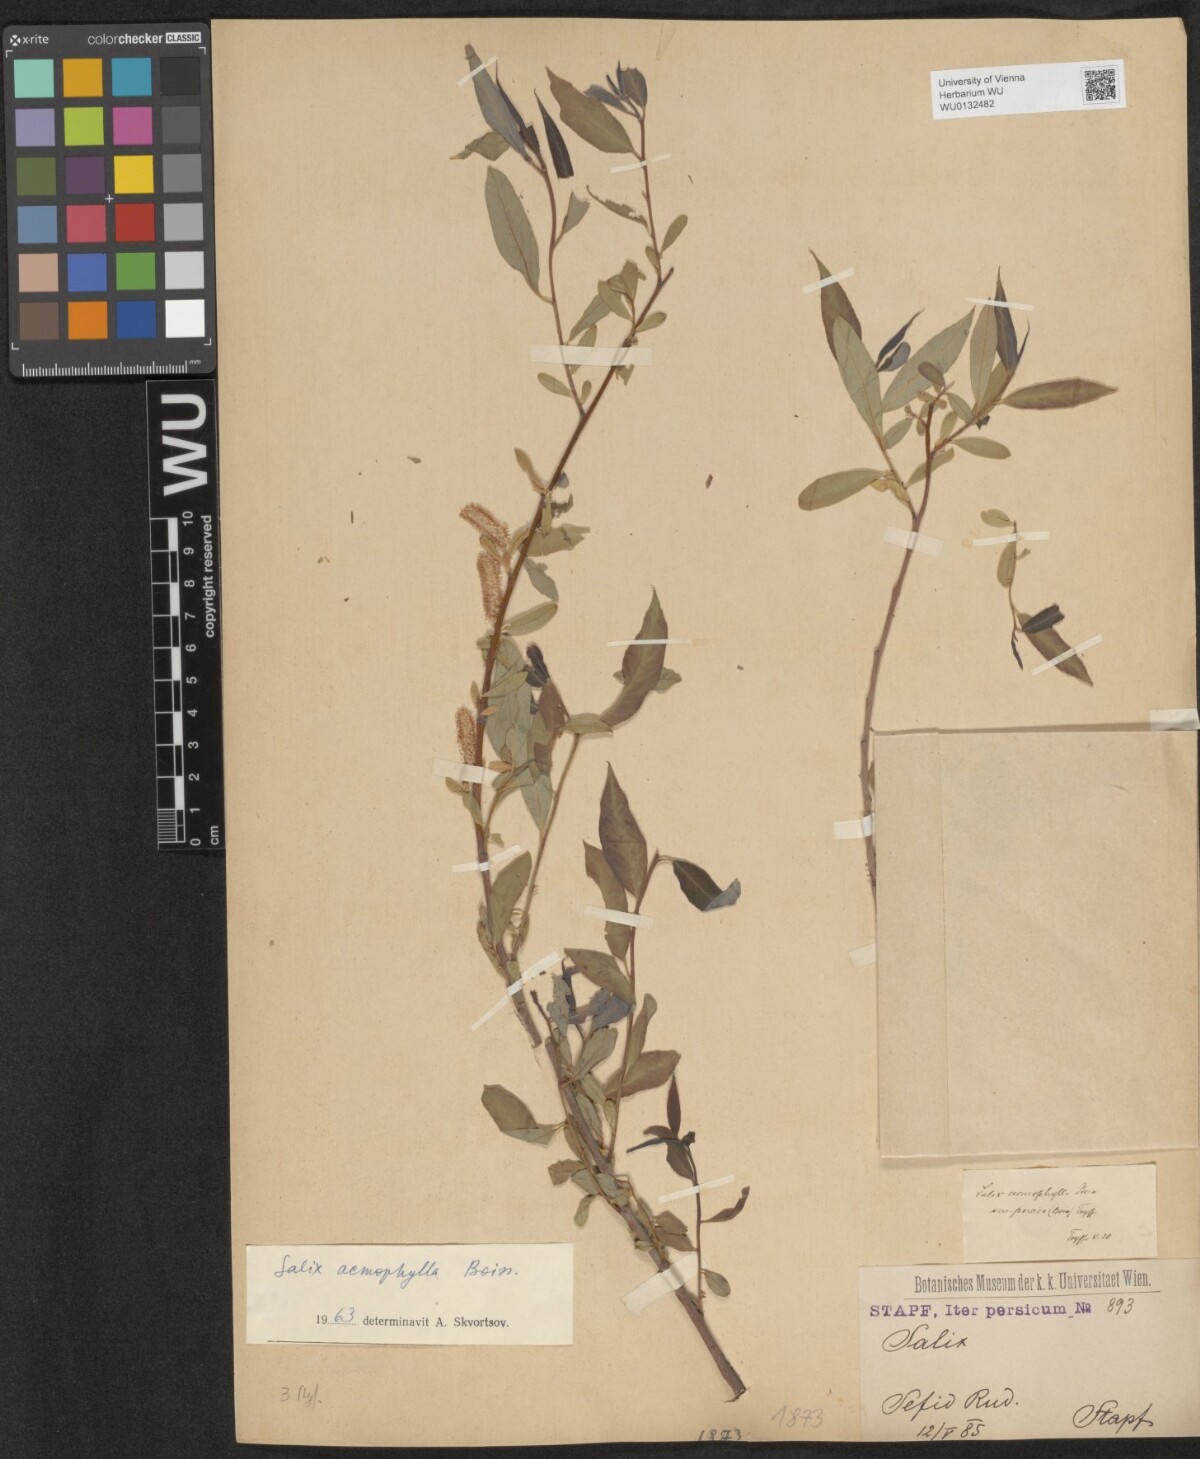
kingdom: Plantae
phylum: Tracheophyta
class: Magnoliopsida
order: Malpighiales
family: Salicaceae
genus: Salix
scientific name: Salix acmophylla
